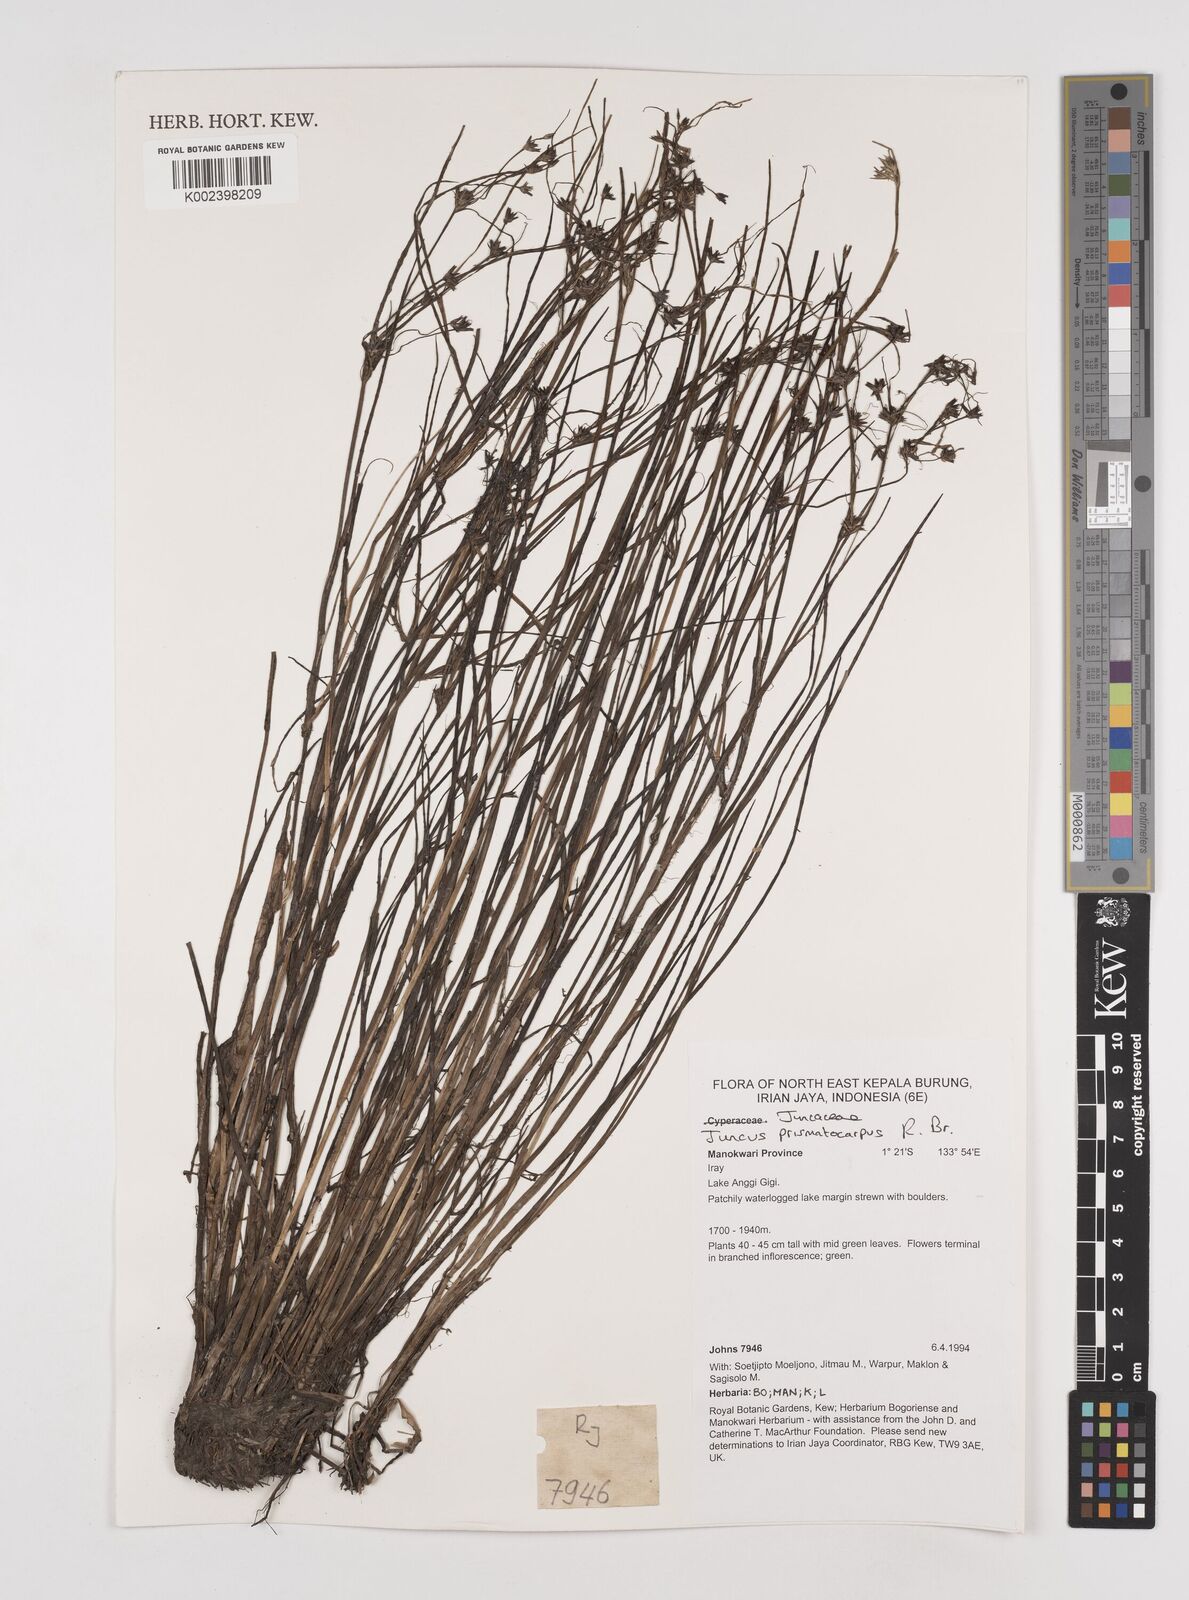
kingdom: Plantae
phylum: Tracheophyta
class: Liliopsida
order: Poales
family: Juncaceae
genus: Juncus
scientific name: Juncus prismatocarpus
